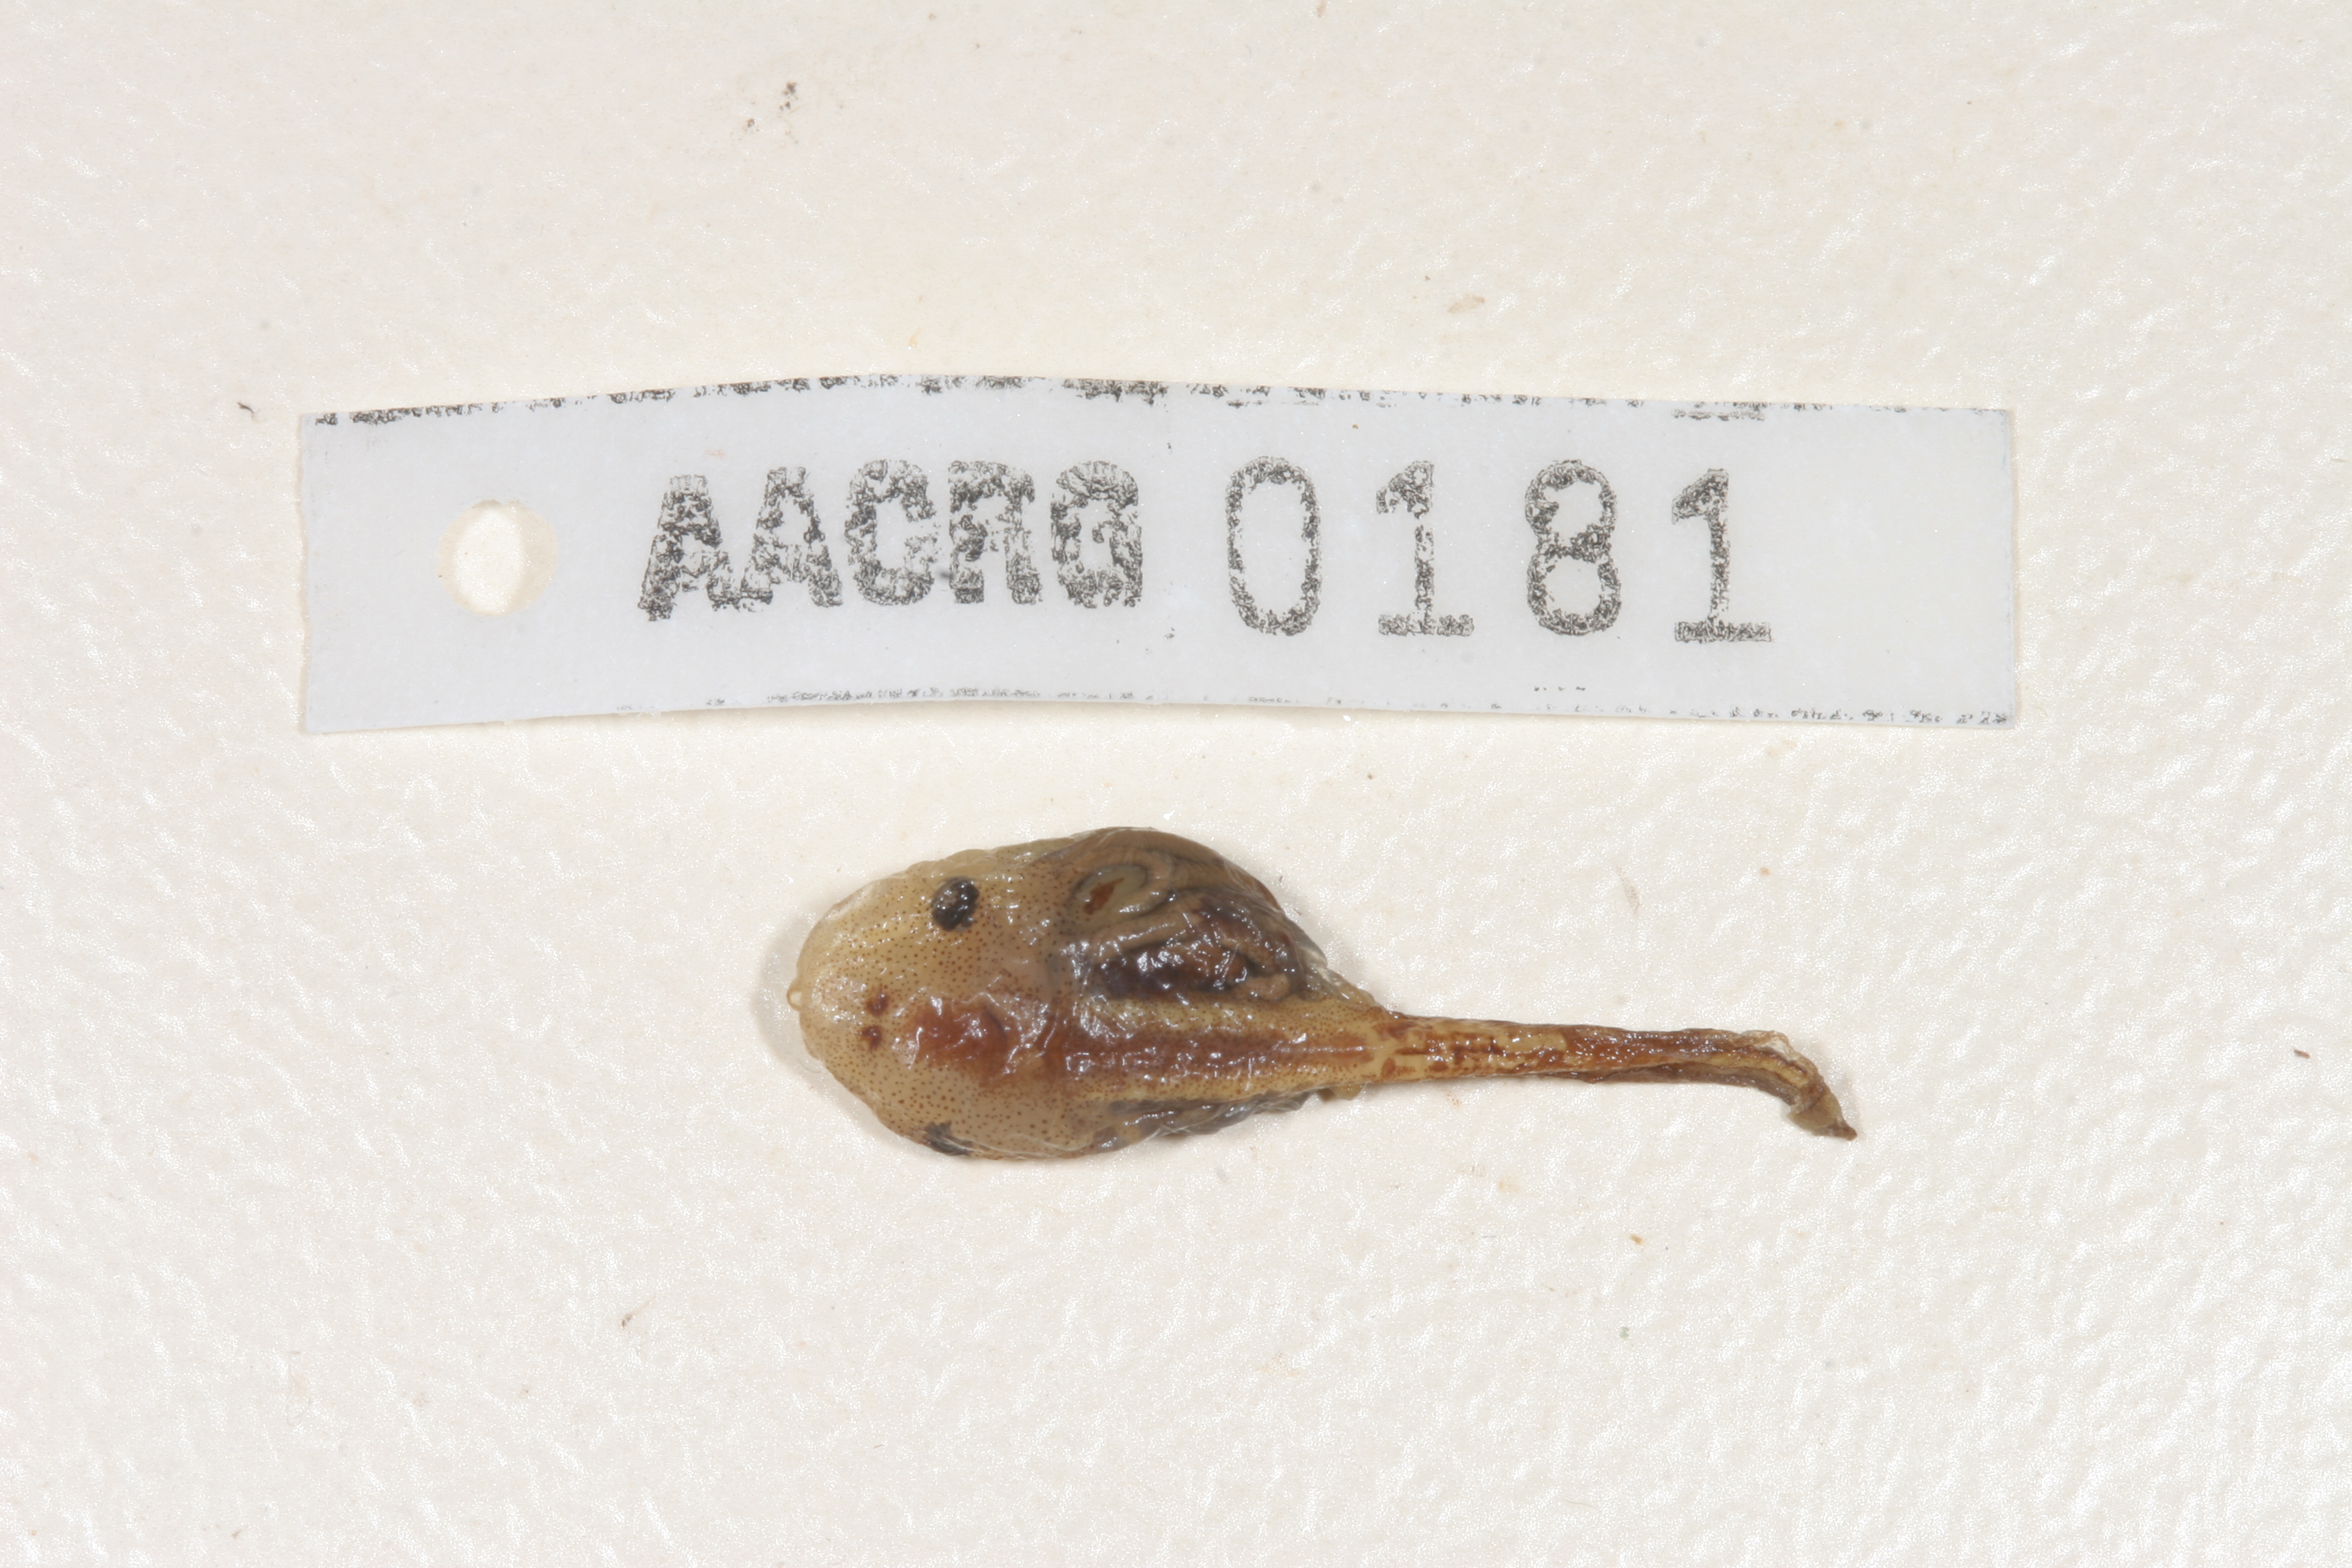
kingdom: Animalia
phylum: Chordata
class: Amphibia
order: Anura
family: Microhylidae
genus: Phrynomantis
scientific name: Phrynomantis annectens
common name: Marbled rubber frog
